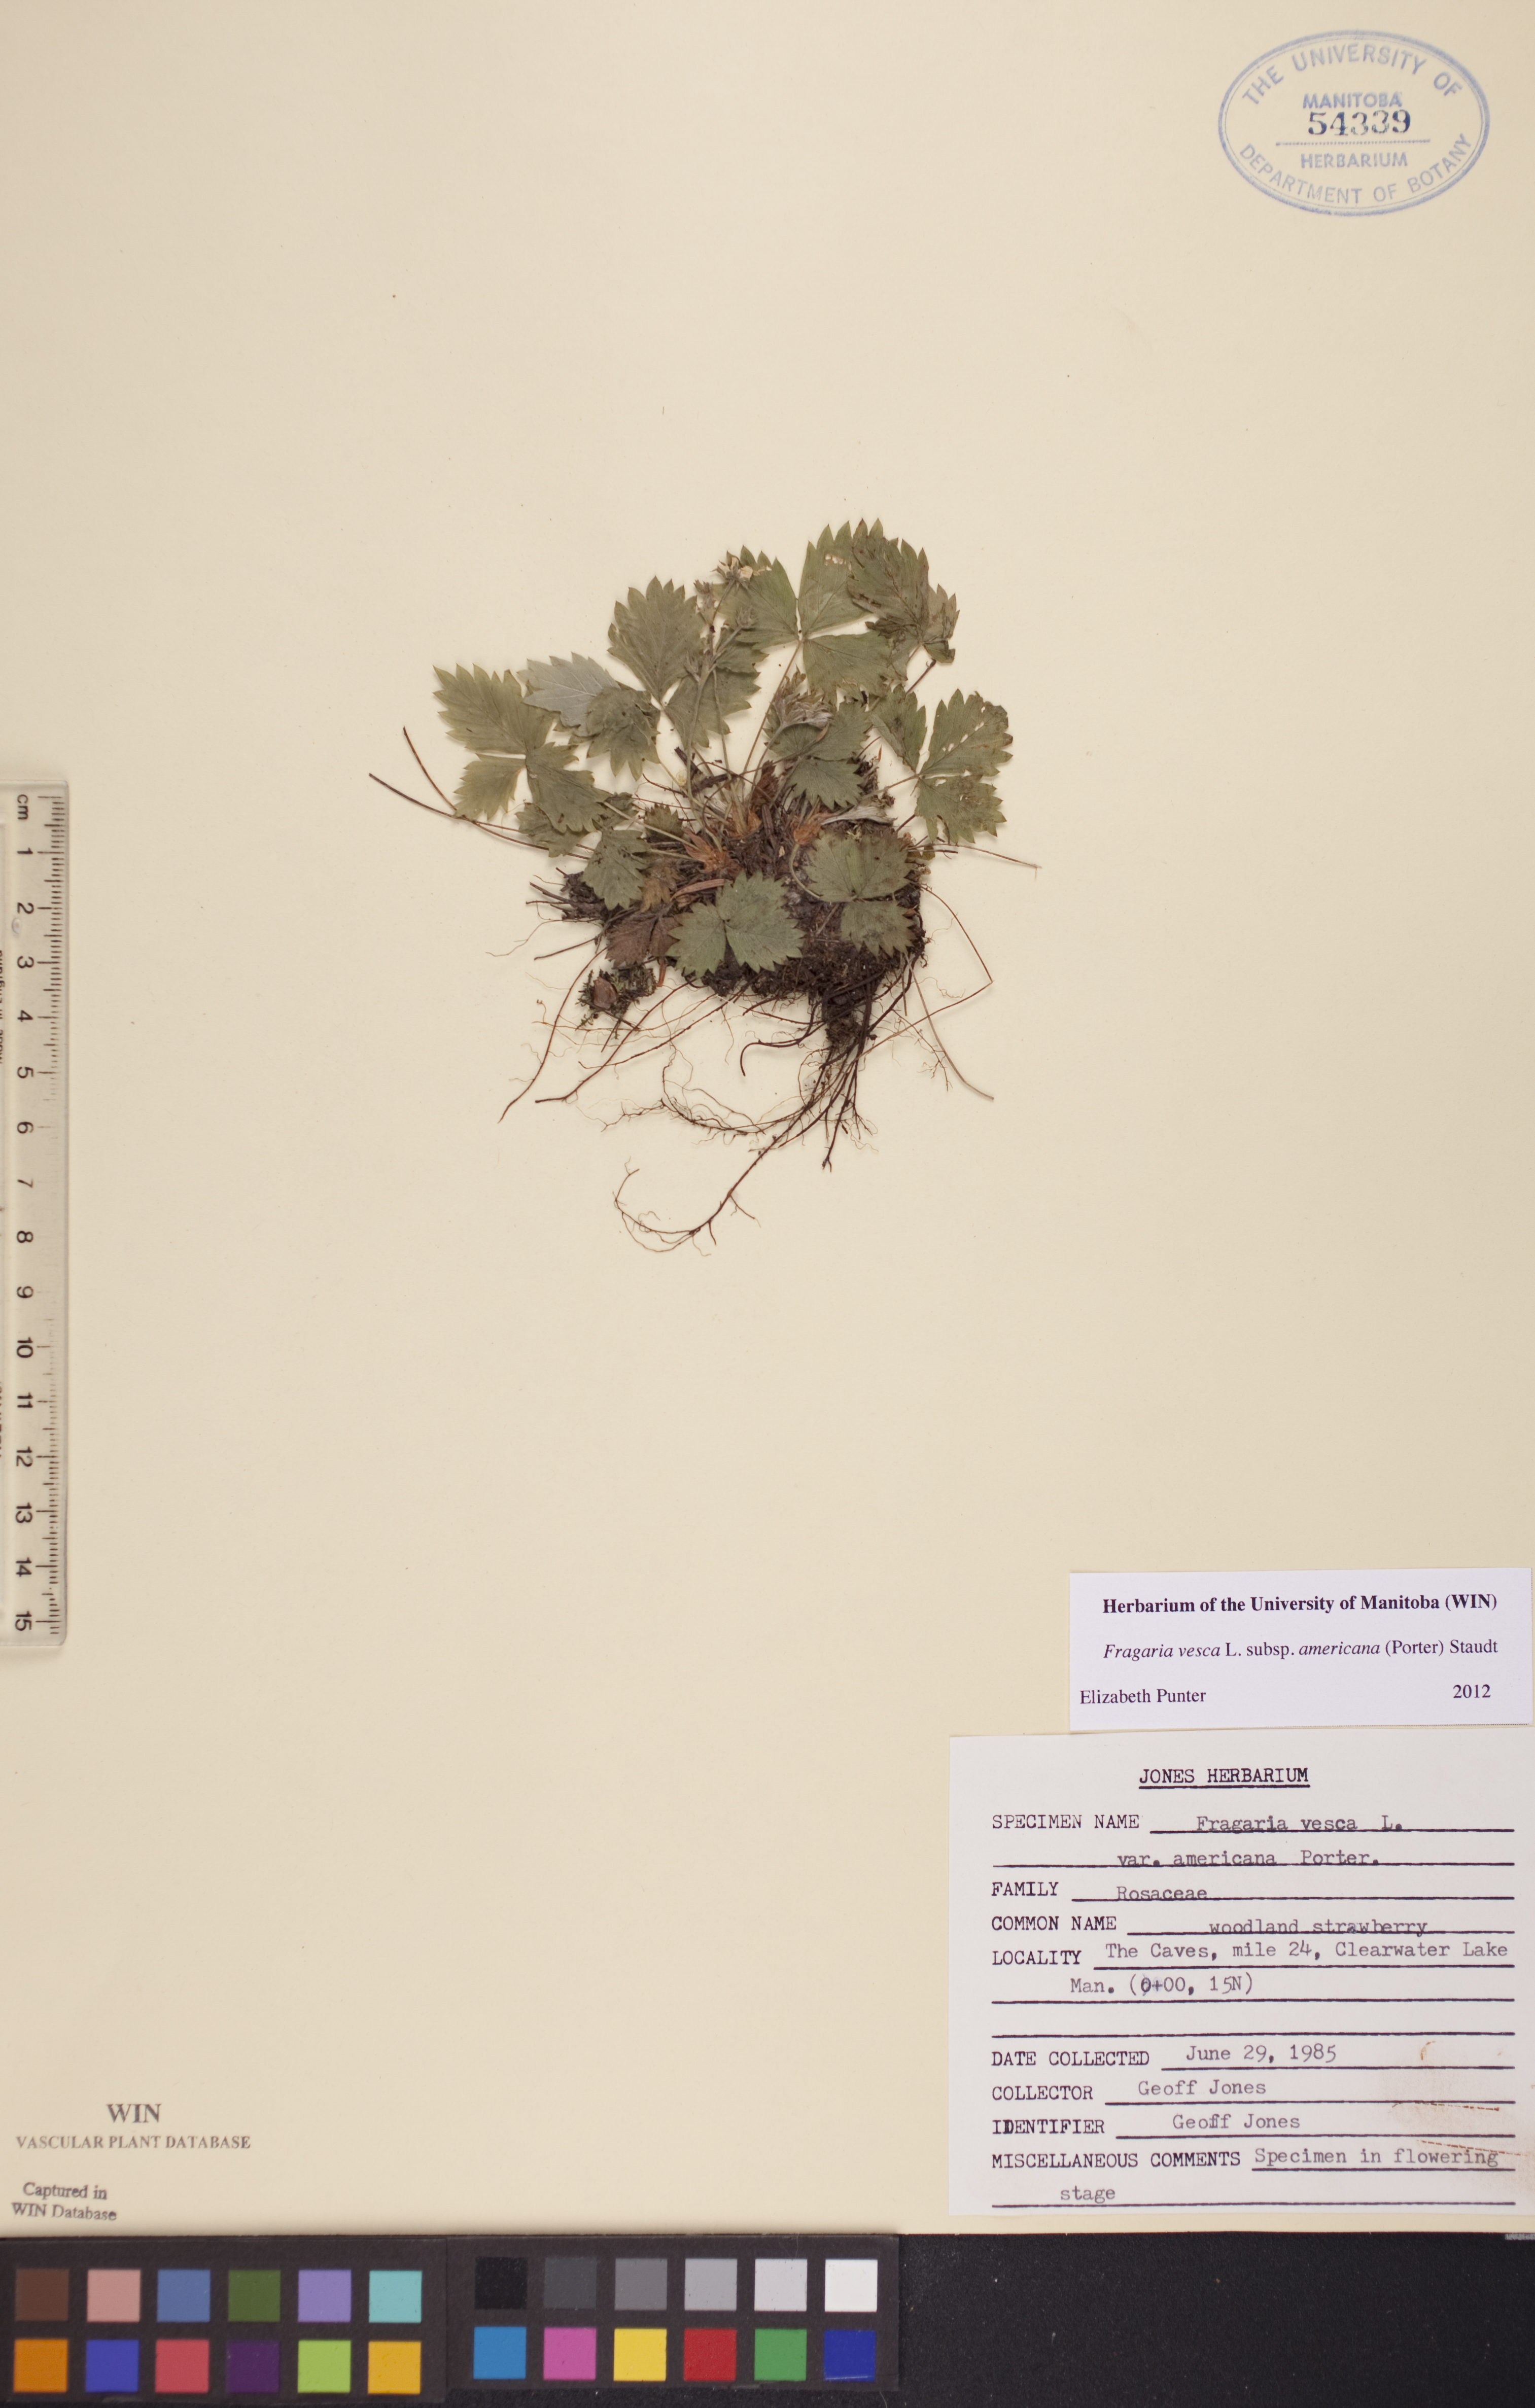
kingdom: Plantae
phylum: Tracheophyta
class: Magnoliopsida
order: Rosales
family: Rosaceae
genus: Fragaria
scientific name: Fragaria vesca
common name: Wild strawberry
